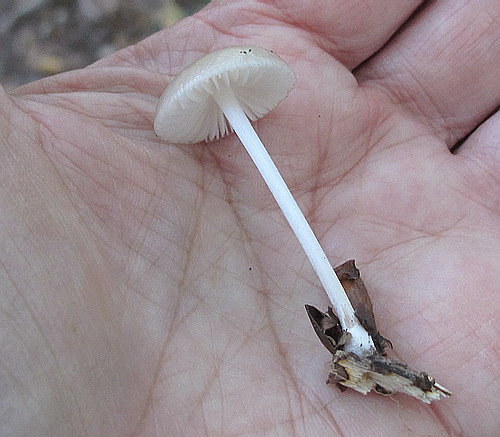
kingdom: Fungi
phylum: Basidiomycota
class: Agaricomycetes
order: Agaricales
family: Physalacriaceae
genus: Hymenopellis
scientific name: Hymenopellis radicata
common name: almindelig pælerodshat
